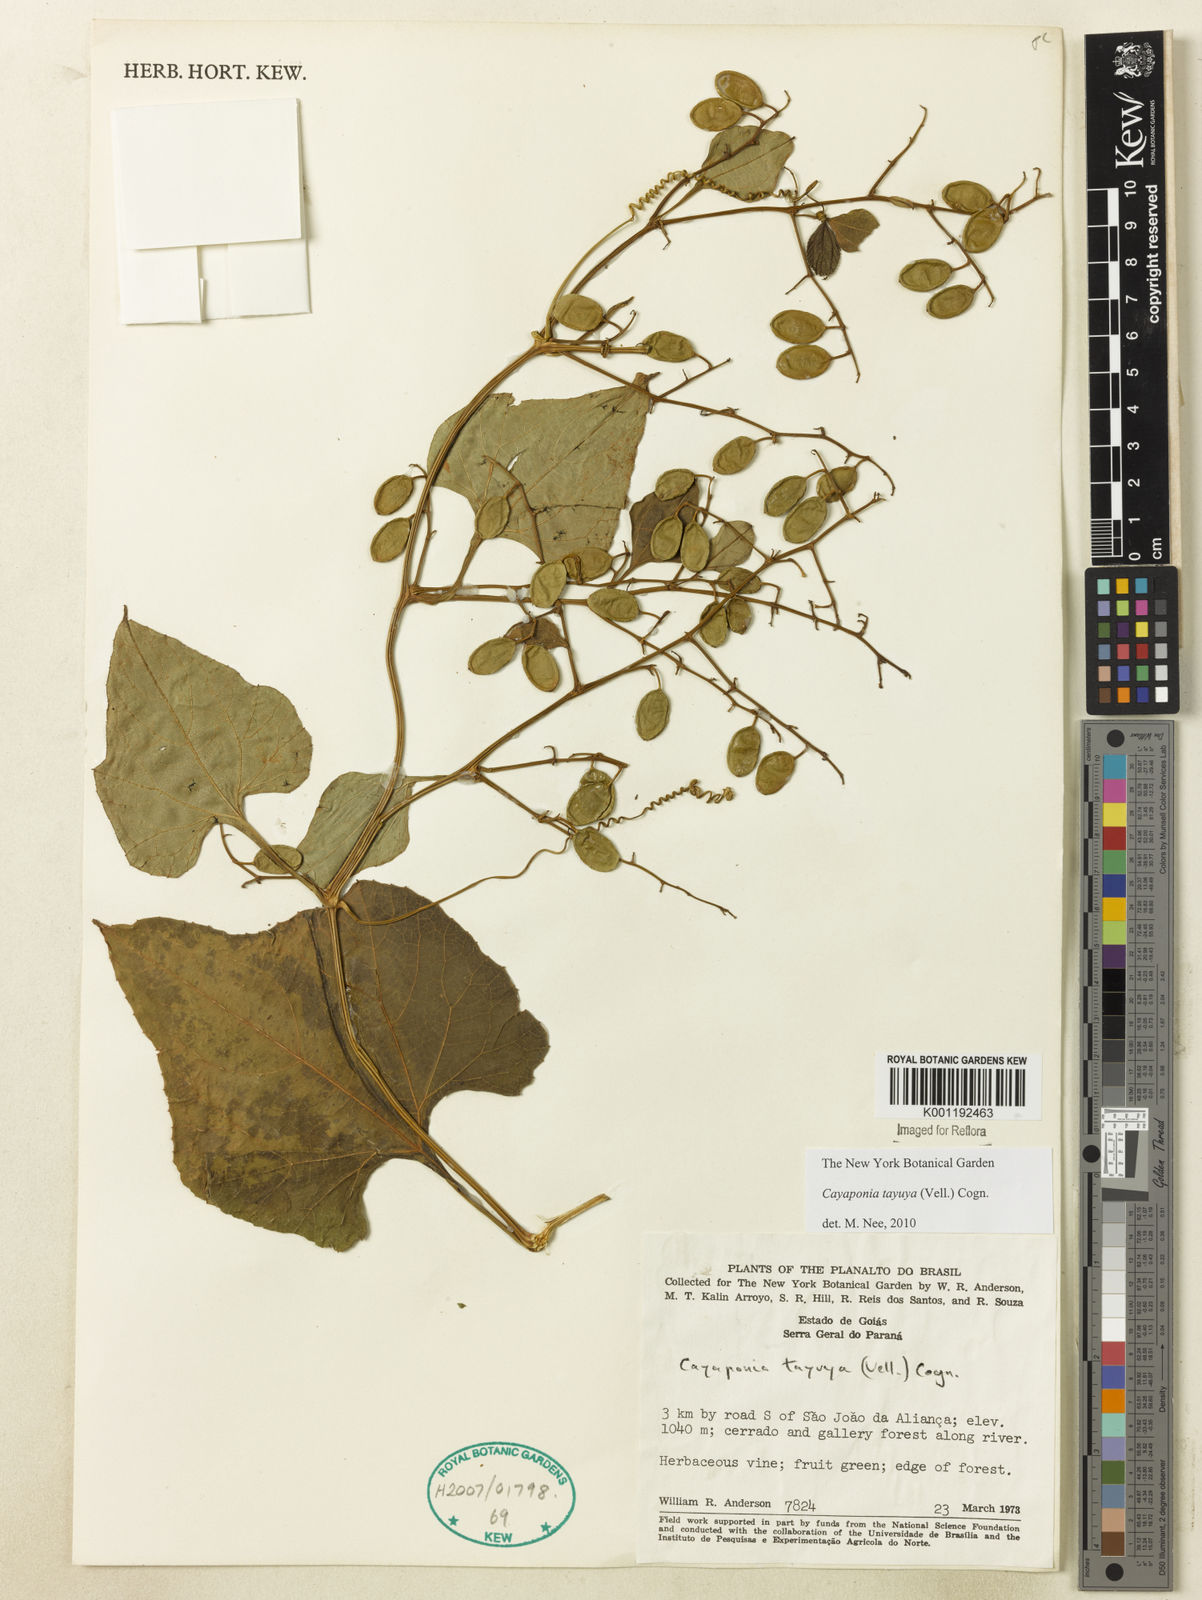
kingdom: Plantae
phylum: Tracheophyta
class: Magnoliopsida
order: Cucurbitales
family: Cucurbitaceae
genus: Cayaponia
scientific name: Cayaponia tayuya
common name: Tayuya
